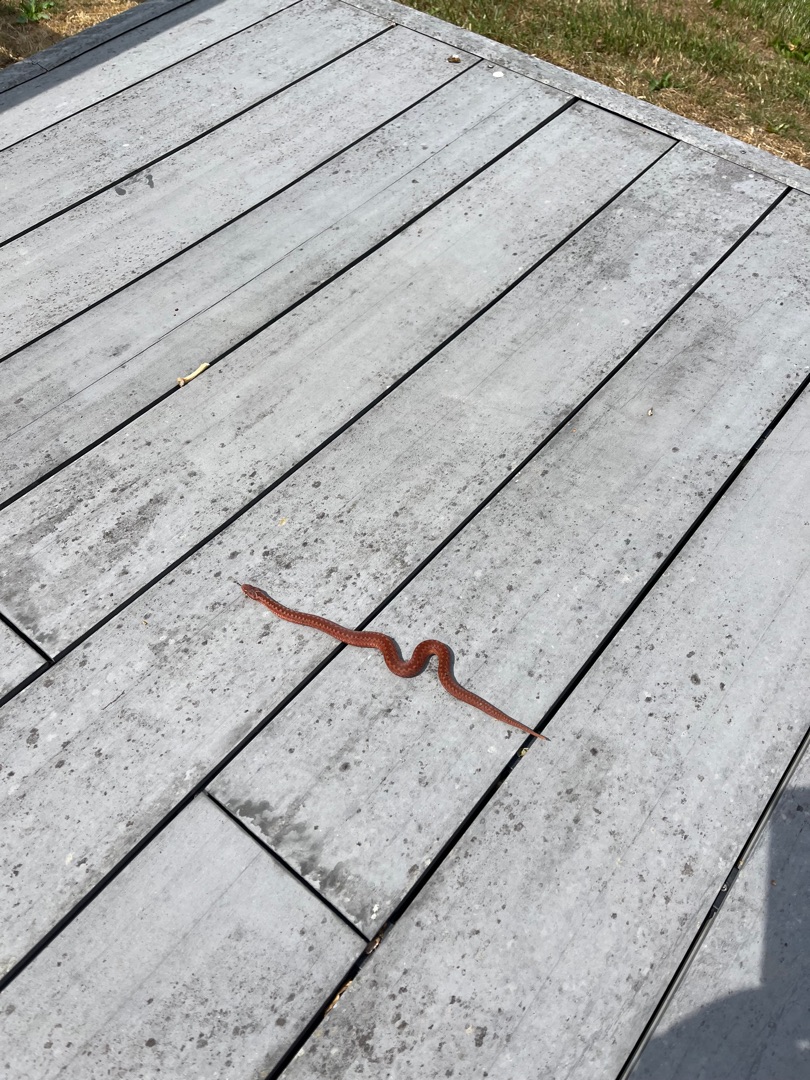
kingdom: Animalia
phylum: Chordata
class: Squamata
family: Viperidae
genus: Vipera
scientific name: Vipera berus
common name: Hugorm
